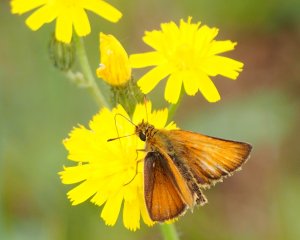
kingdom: Animalia
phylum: Arthropoda
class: Insecta
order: Lepidoptera
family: Hesperiidae
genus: Thymelicus
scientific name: Thymelicus lineola
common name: European Skipper
